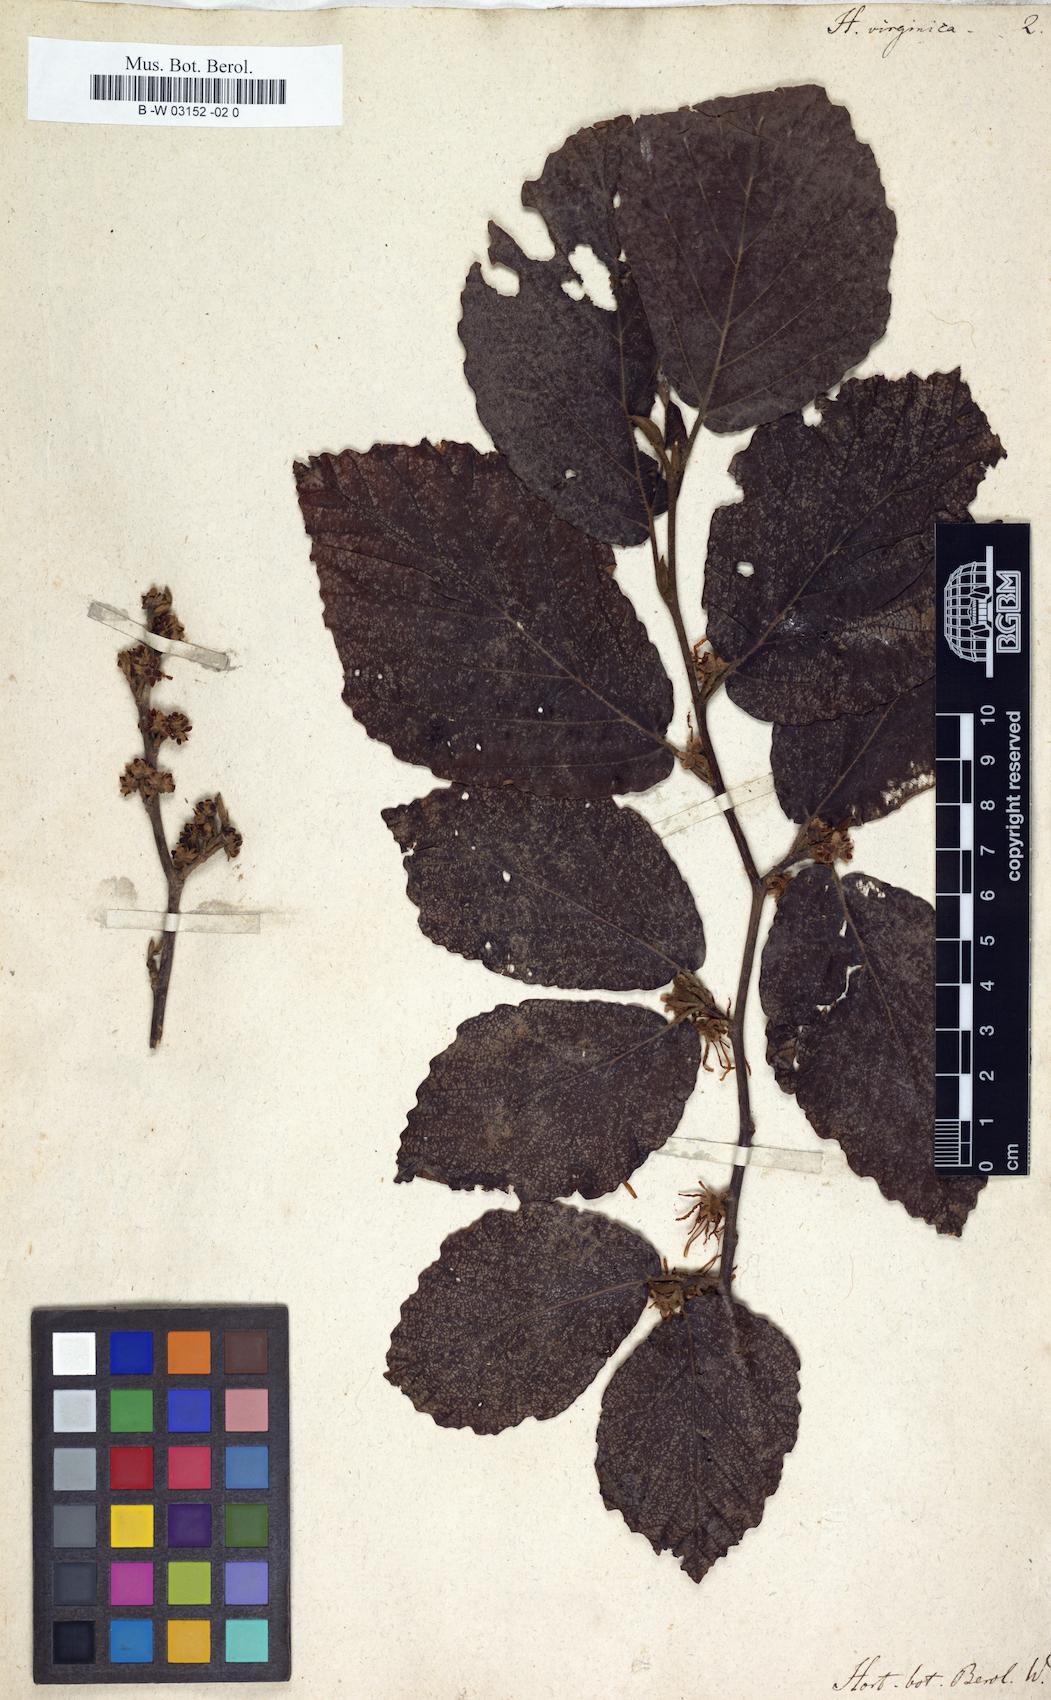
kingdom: Plantae
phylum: Tracheophyta
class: Magnoliopsida
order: Saxifragales
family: Hamamelidaceae
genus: Hamamelis
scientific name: Hamamelis virginiana
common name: Witch-hazel
